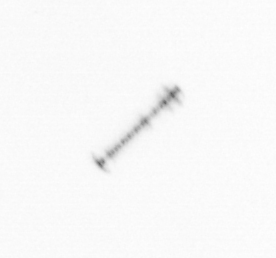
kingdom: Chromista
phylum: Ochrophyta
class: Bacillariophyceae
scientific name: Bacillariophyceae
